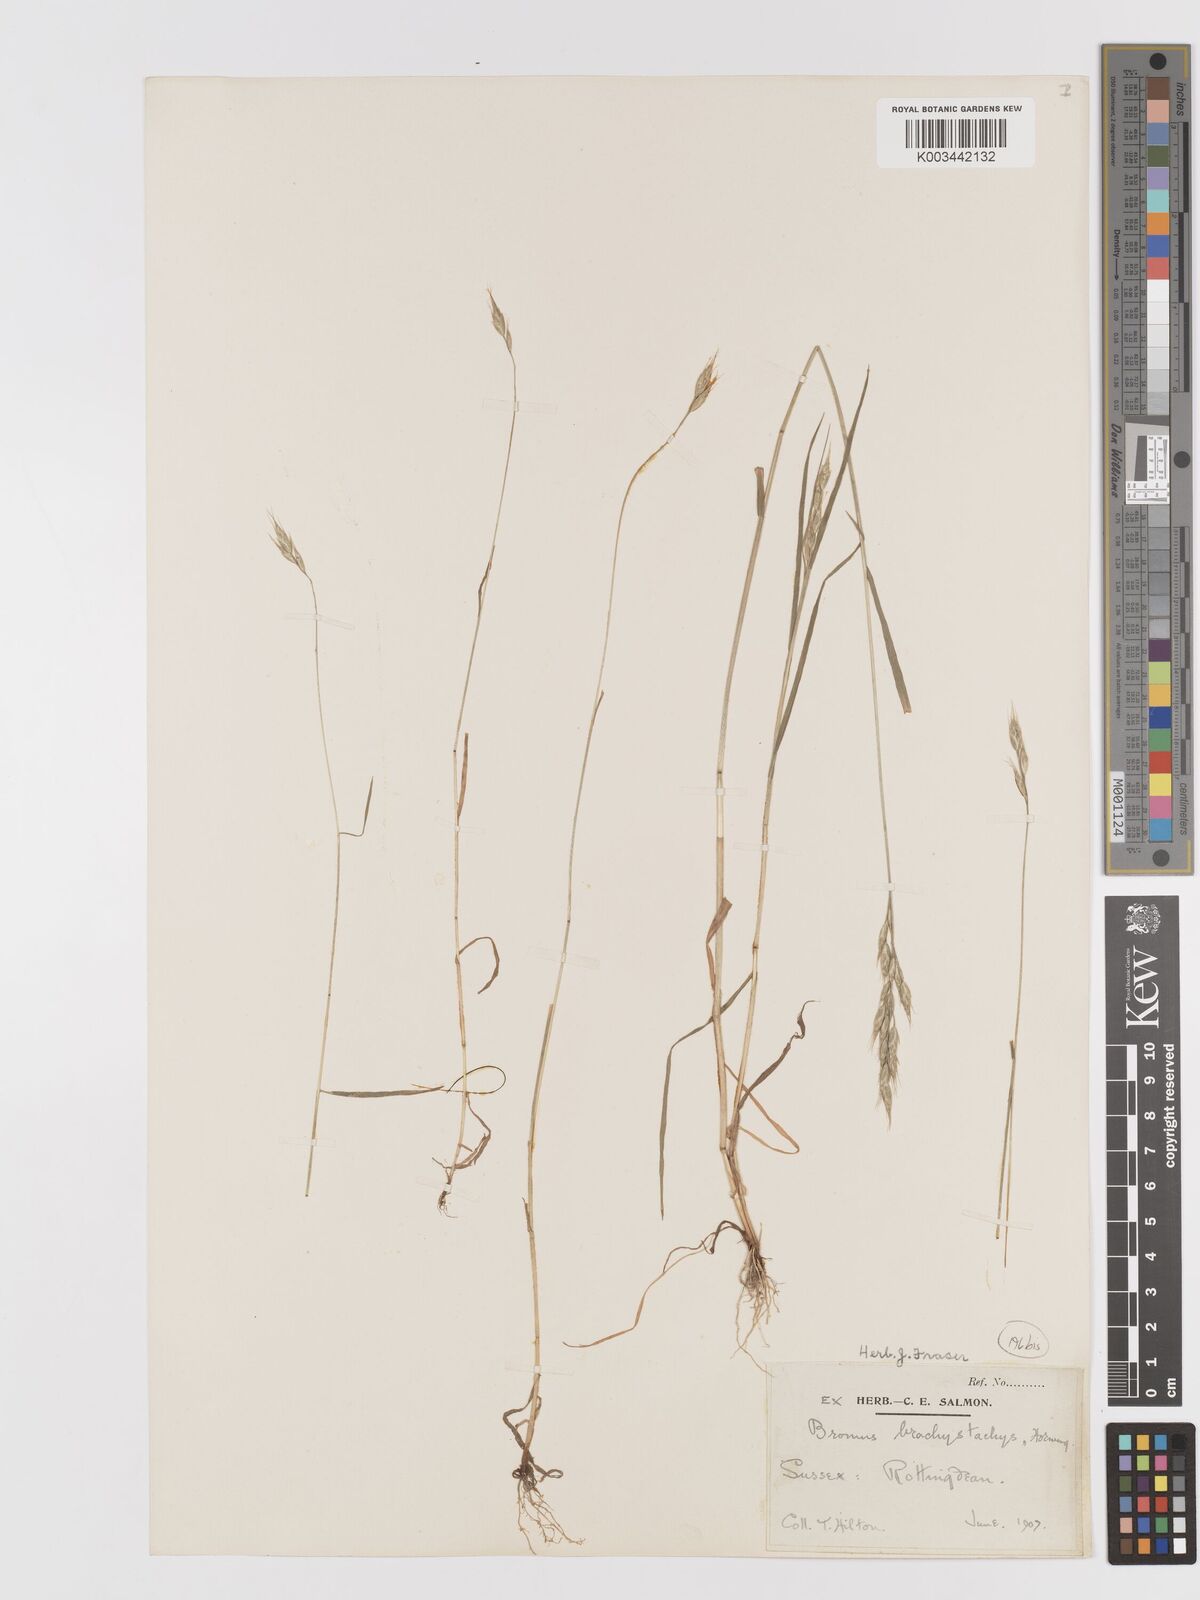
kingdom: Plantae
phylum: Tracheophyta
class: Liliopsida
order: Poales
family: Poaceae
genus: Bromus
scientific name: Bromus lepidus
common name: Slender soft-brome
